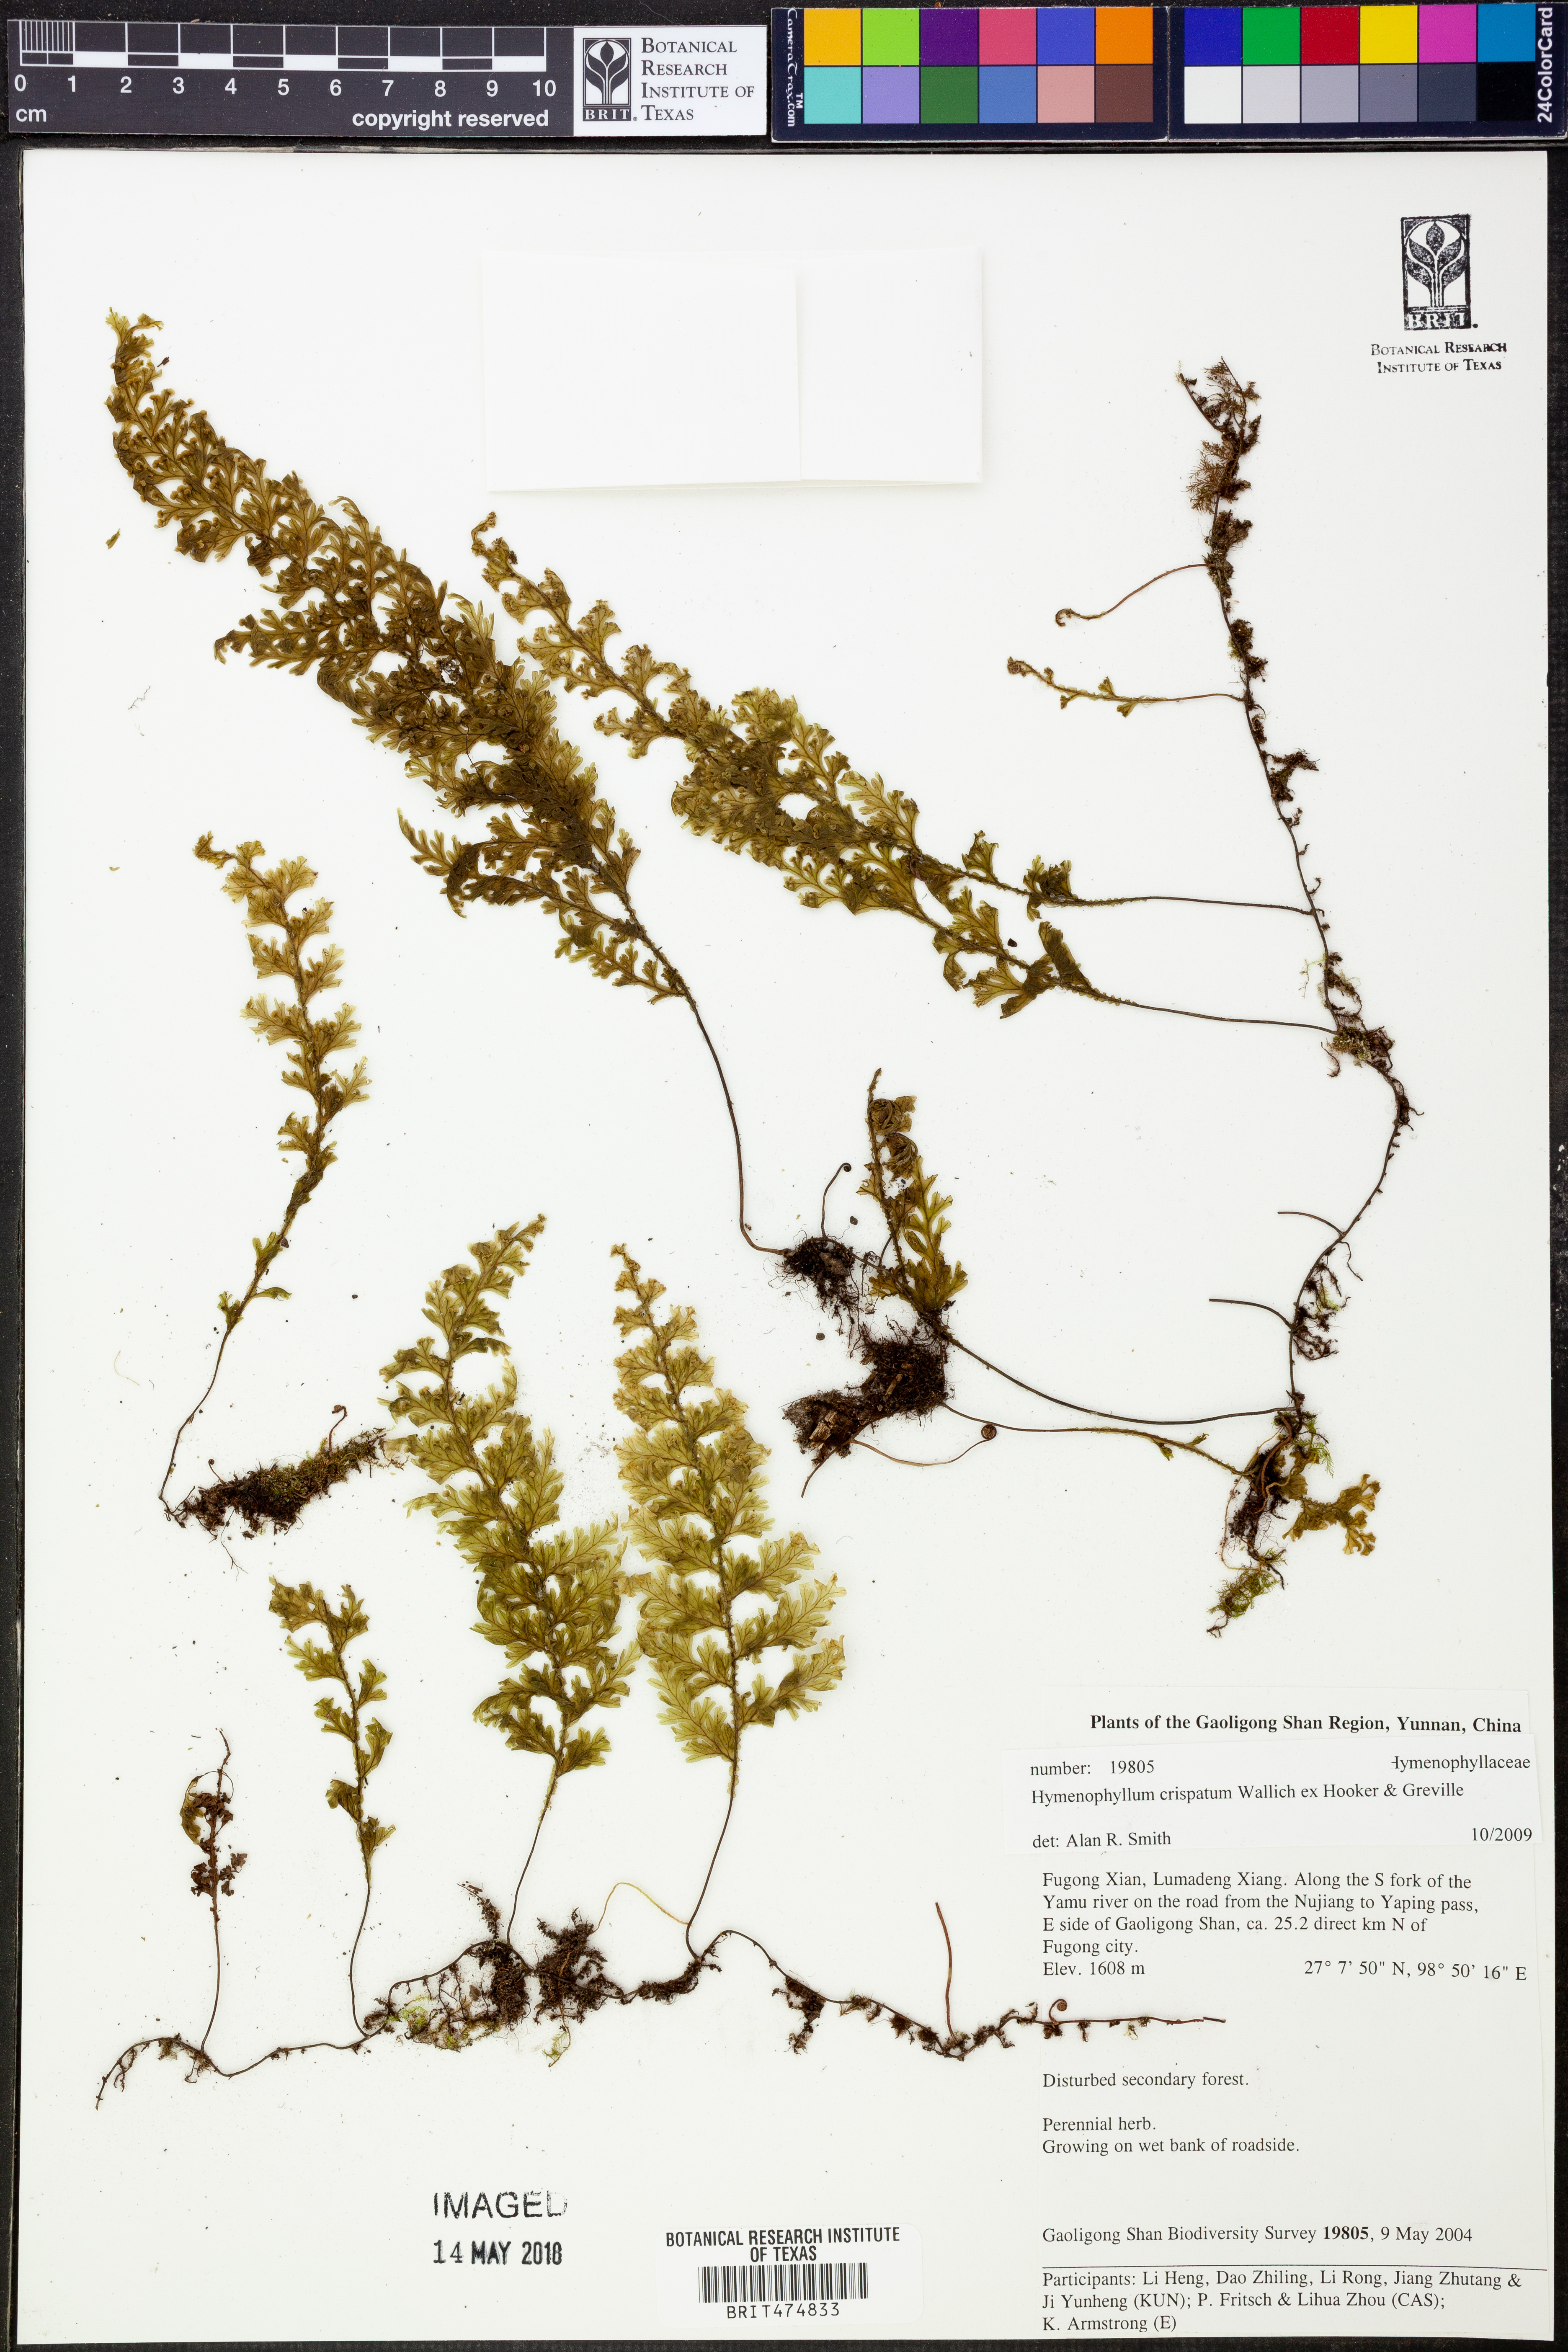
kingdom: Plantae
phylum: Tracheophyta
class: Polypodiopsida
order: Hymenophyllales
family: Hymenophyllaceae
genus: Hymenophyllum
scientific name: Hymenophyllum crispatum
